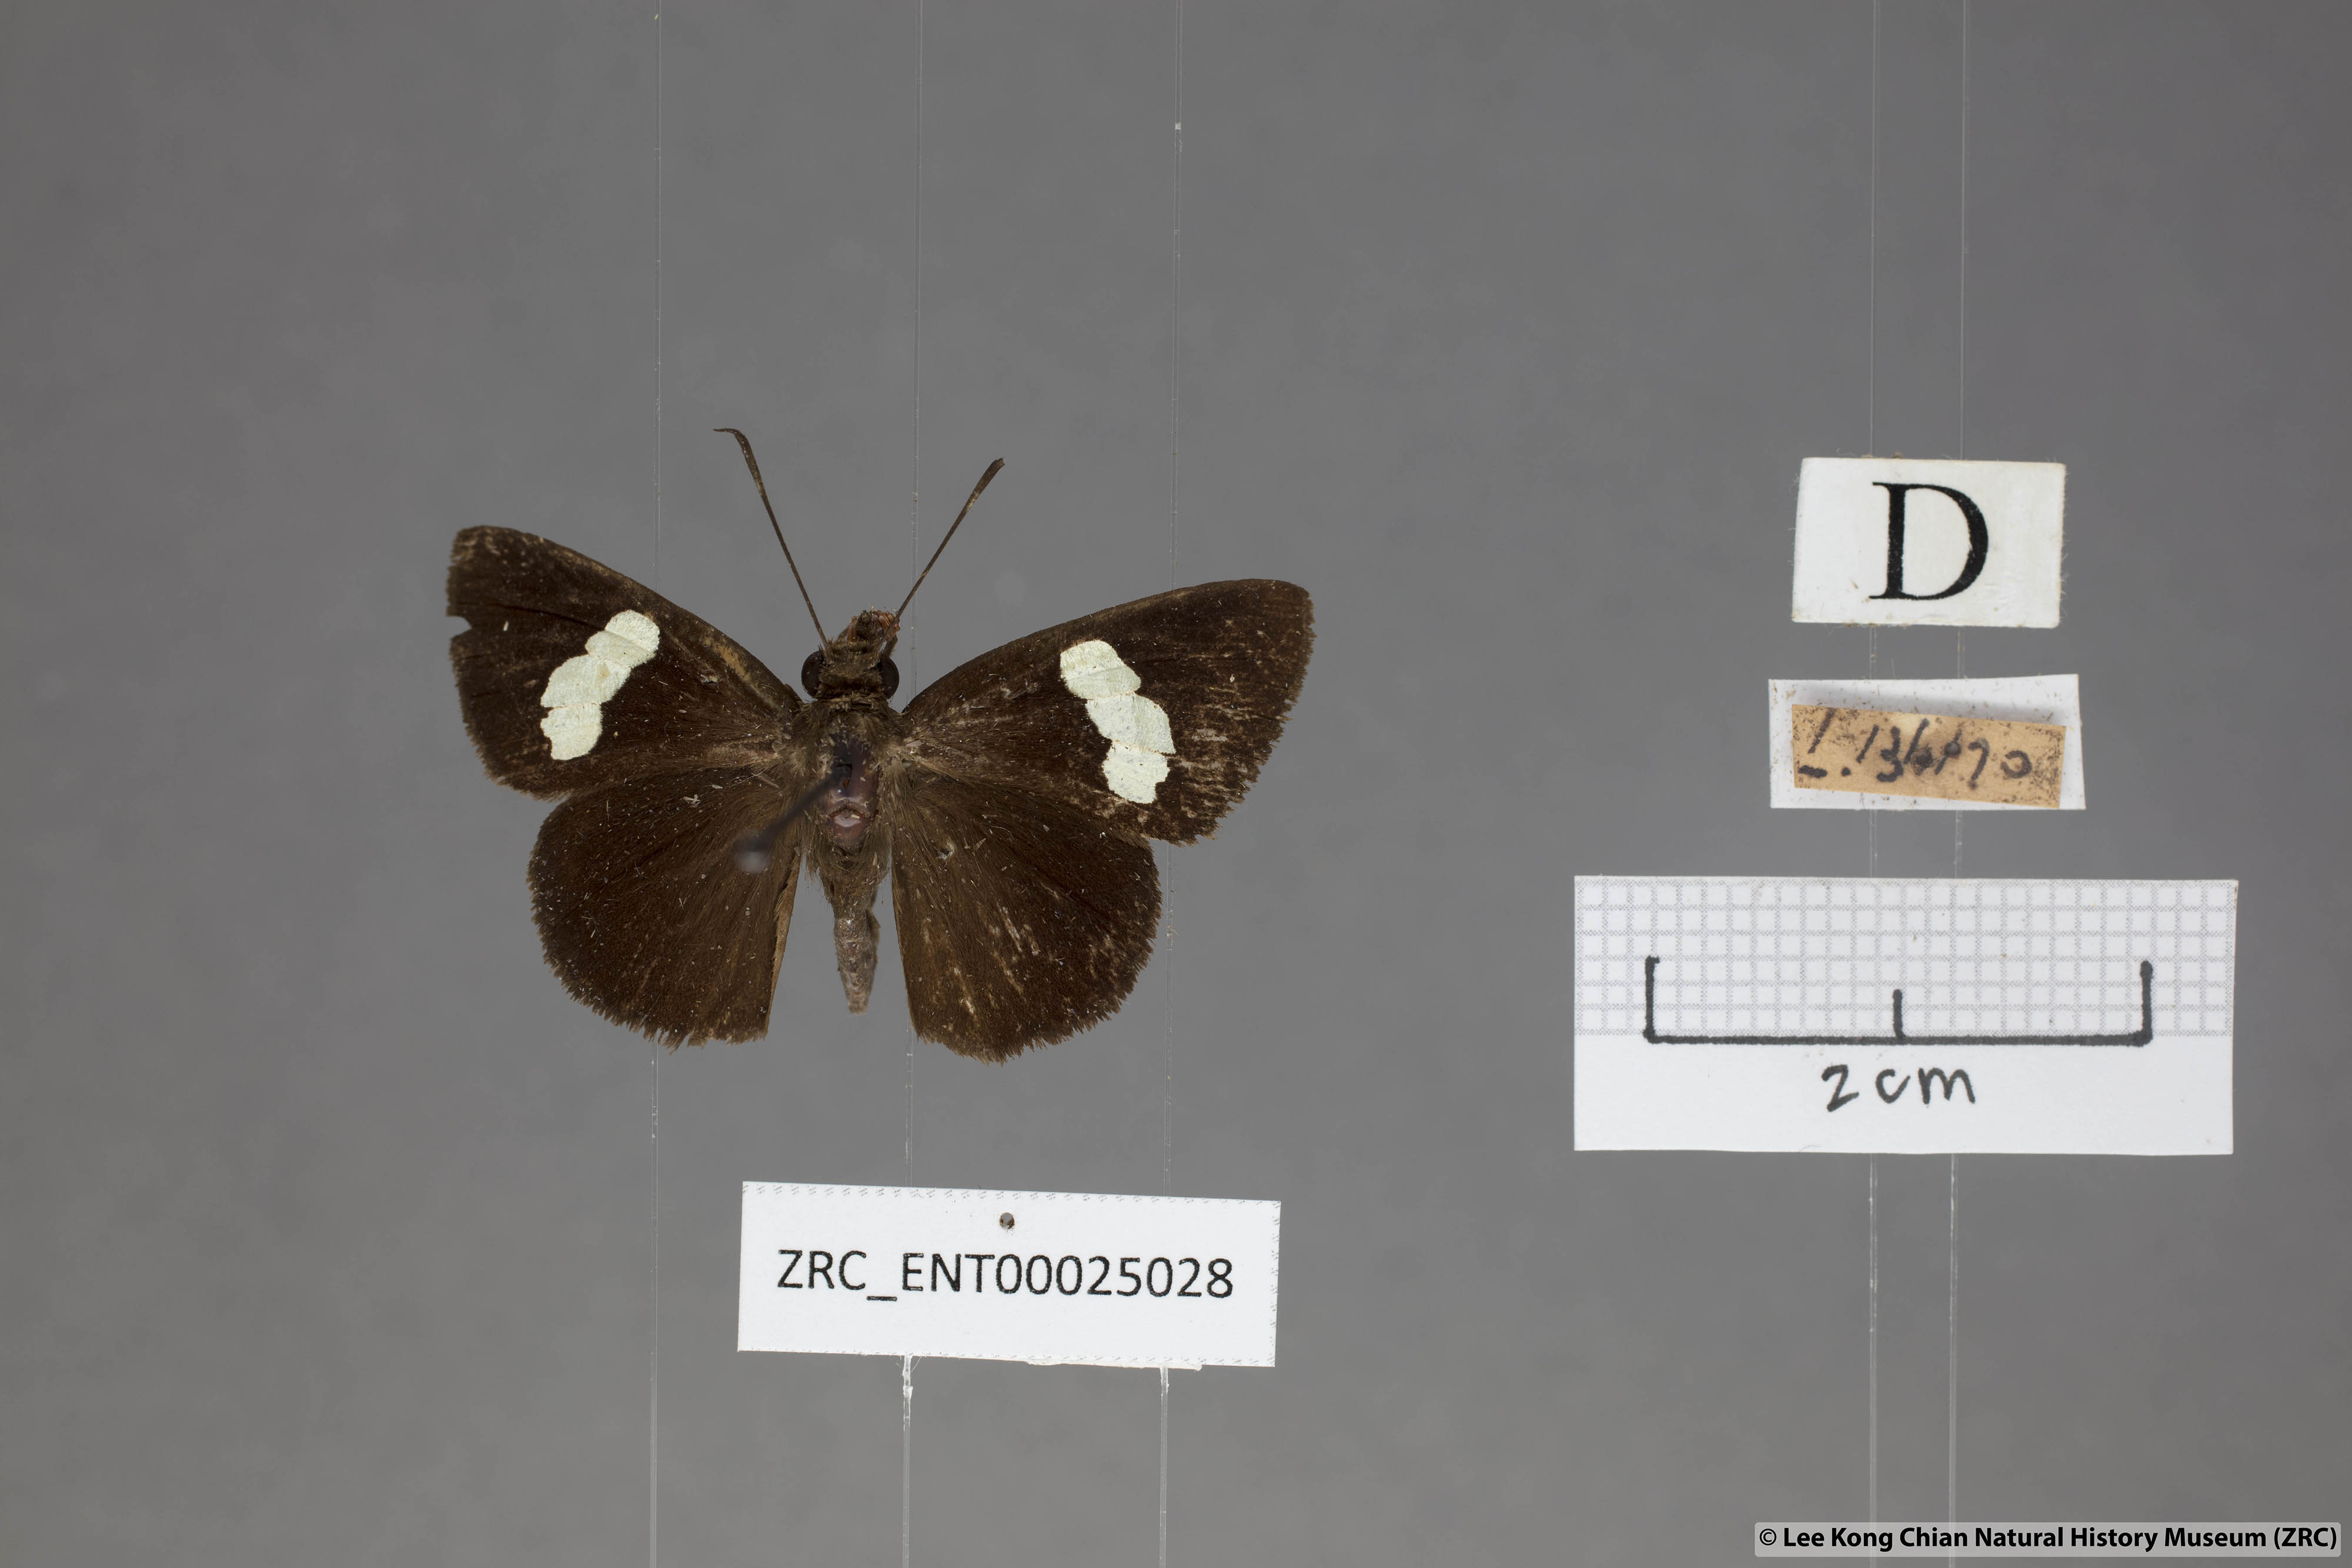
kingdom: Animalia
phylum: Arthropoda
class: Insecta
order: Lepidoptera
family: Hesperiidae
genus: Notocrypta
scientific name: Notocrypta paralysos
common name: Common banded demon
